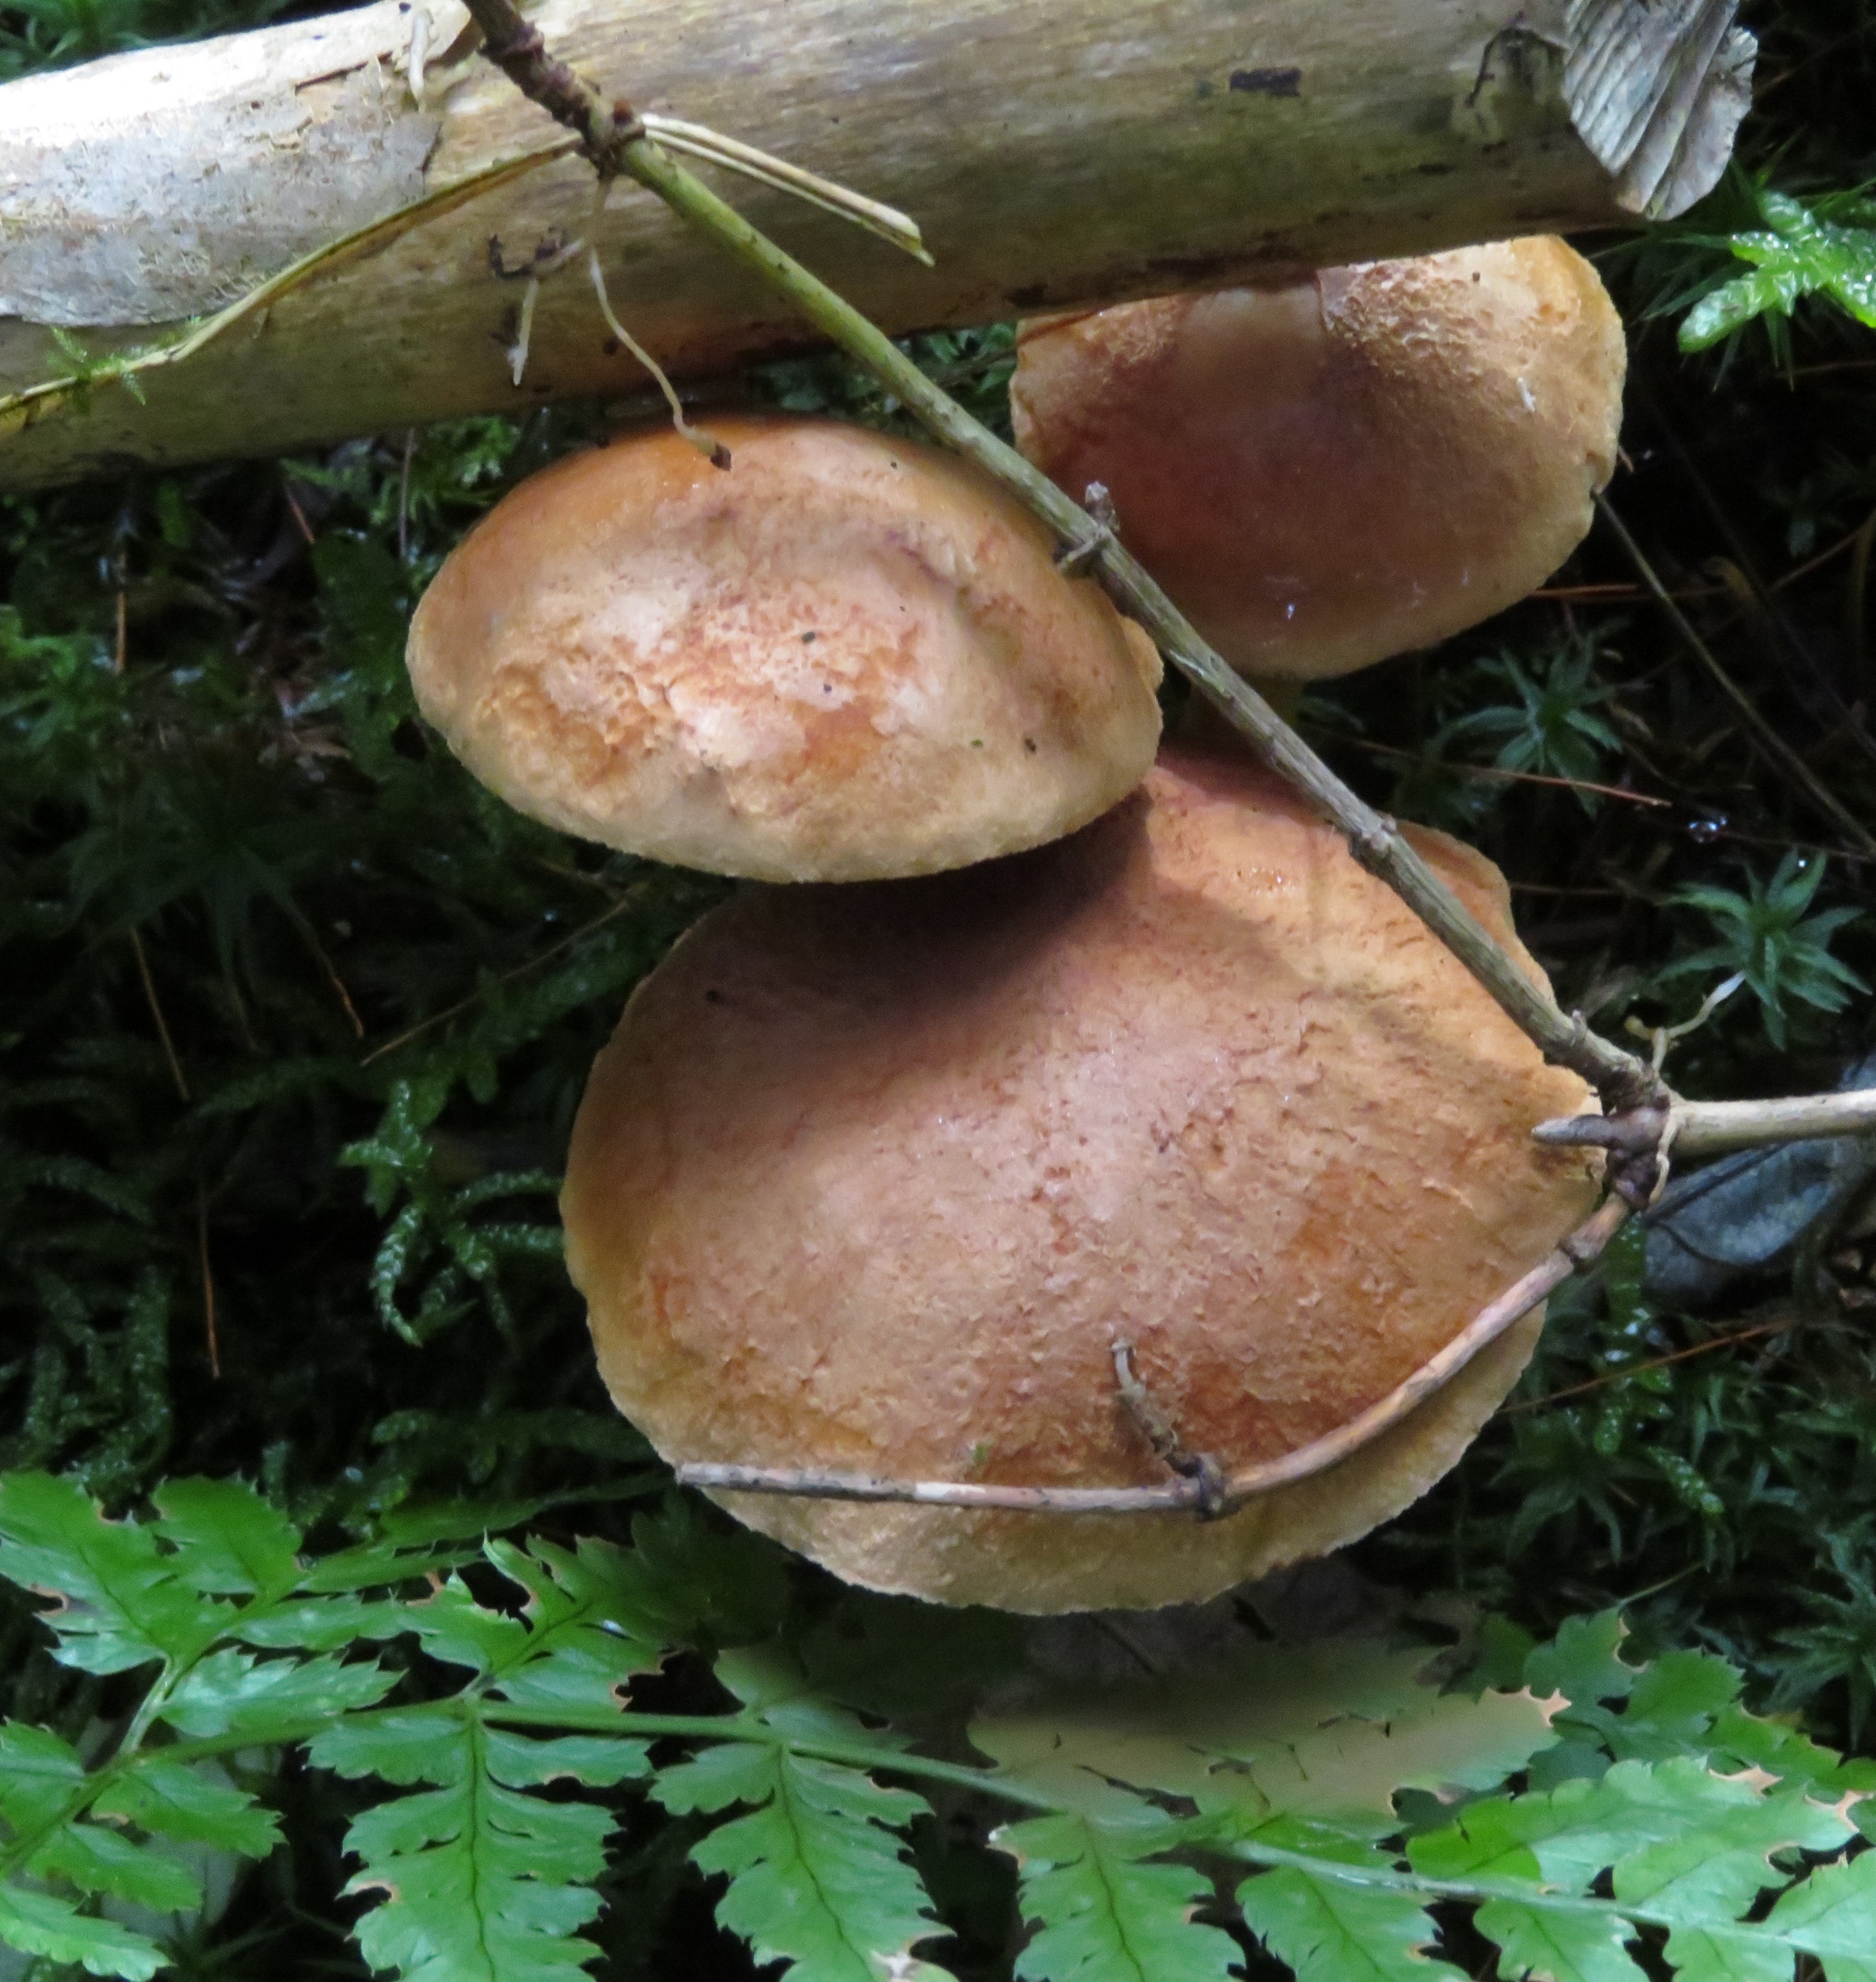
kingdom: Fungi
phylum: Basidiomycota
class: Agaricomycetes
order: Boletales
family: Boletaceae
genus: Chalciporus
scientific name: Chalciporus piperatus
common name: Peberrørhat
